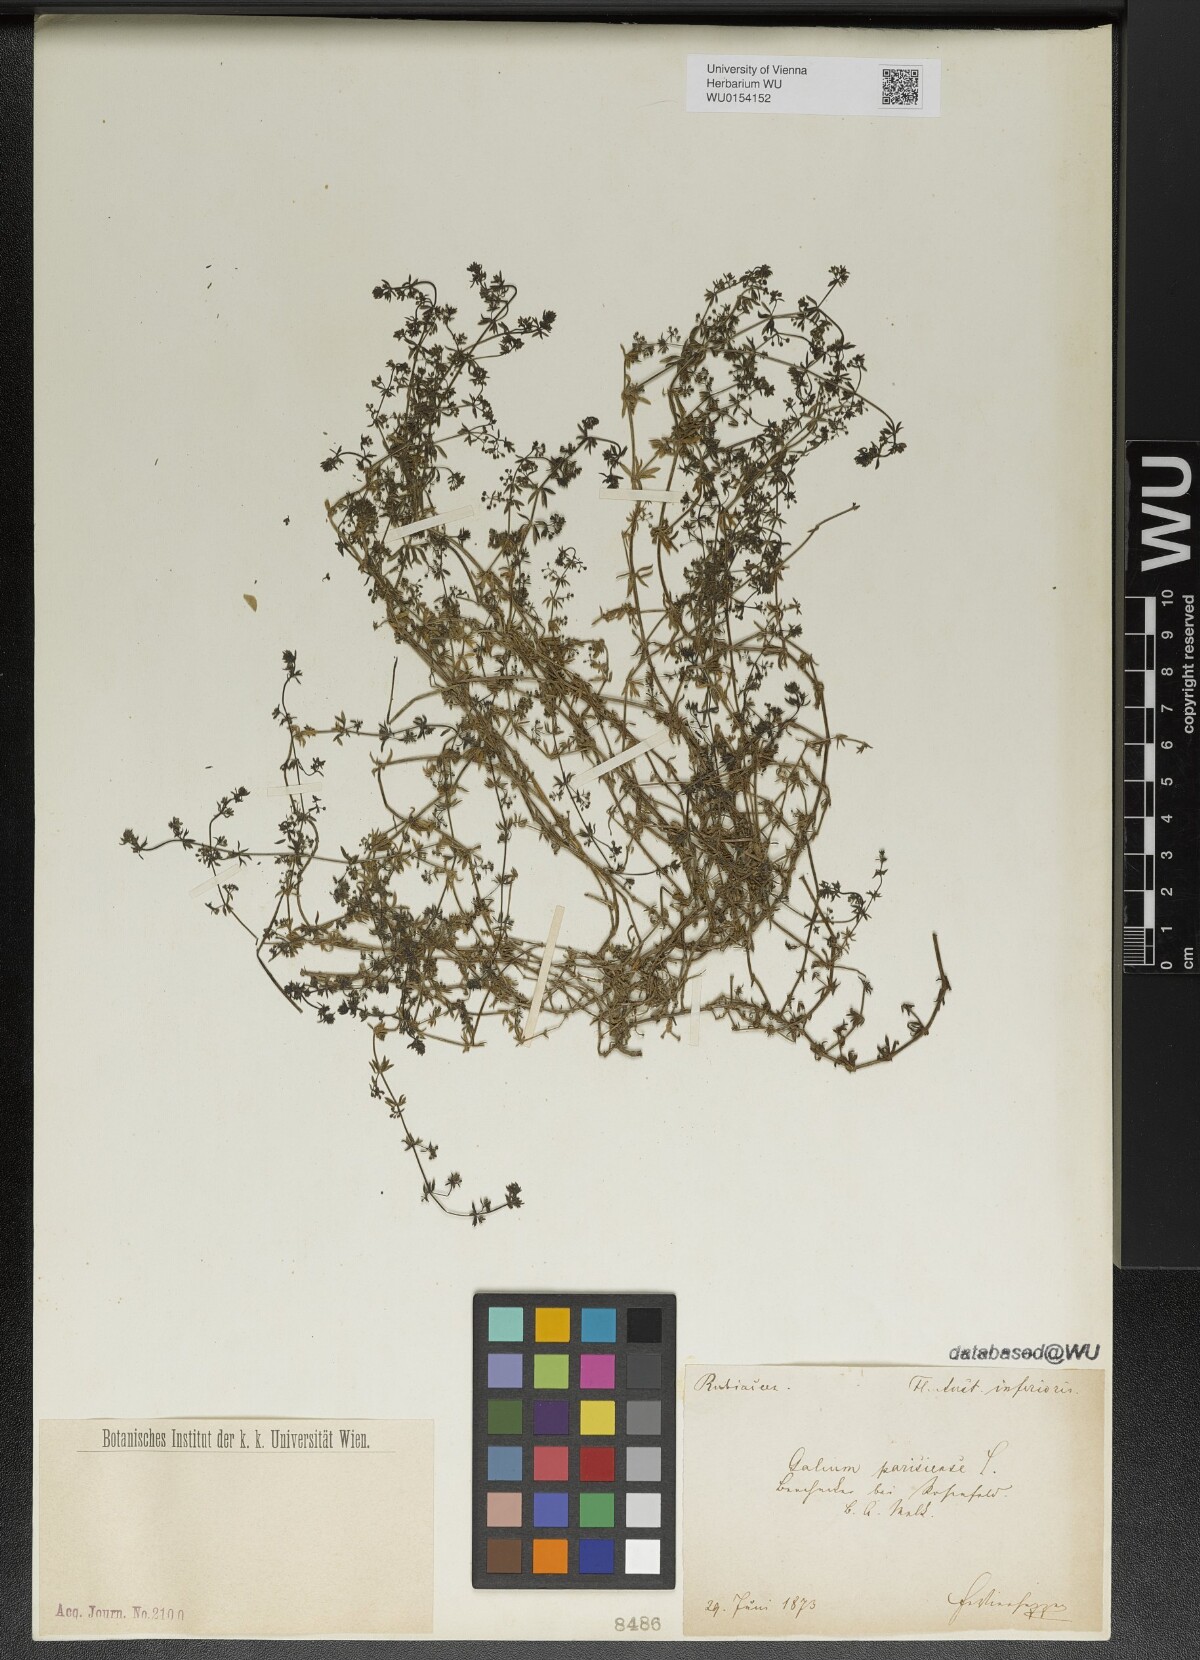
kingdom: Plantae
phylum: Tracheophyta
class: Magnoliopsida
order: Gentianales
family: Rubiaceae
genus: Galium
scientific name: Galium parisiense
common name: Wall bedstraw
